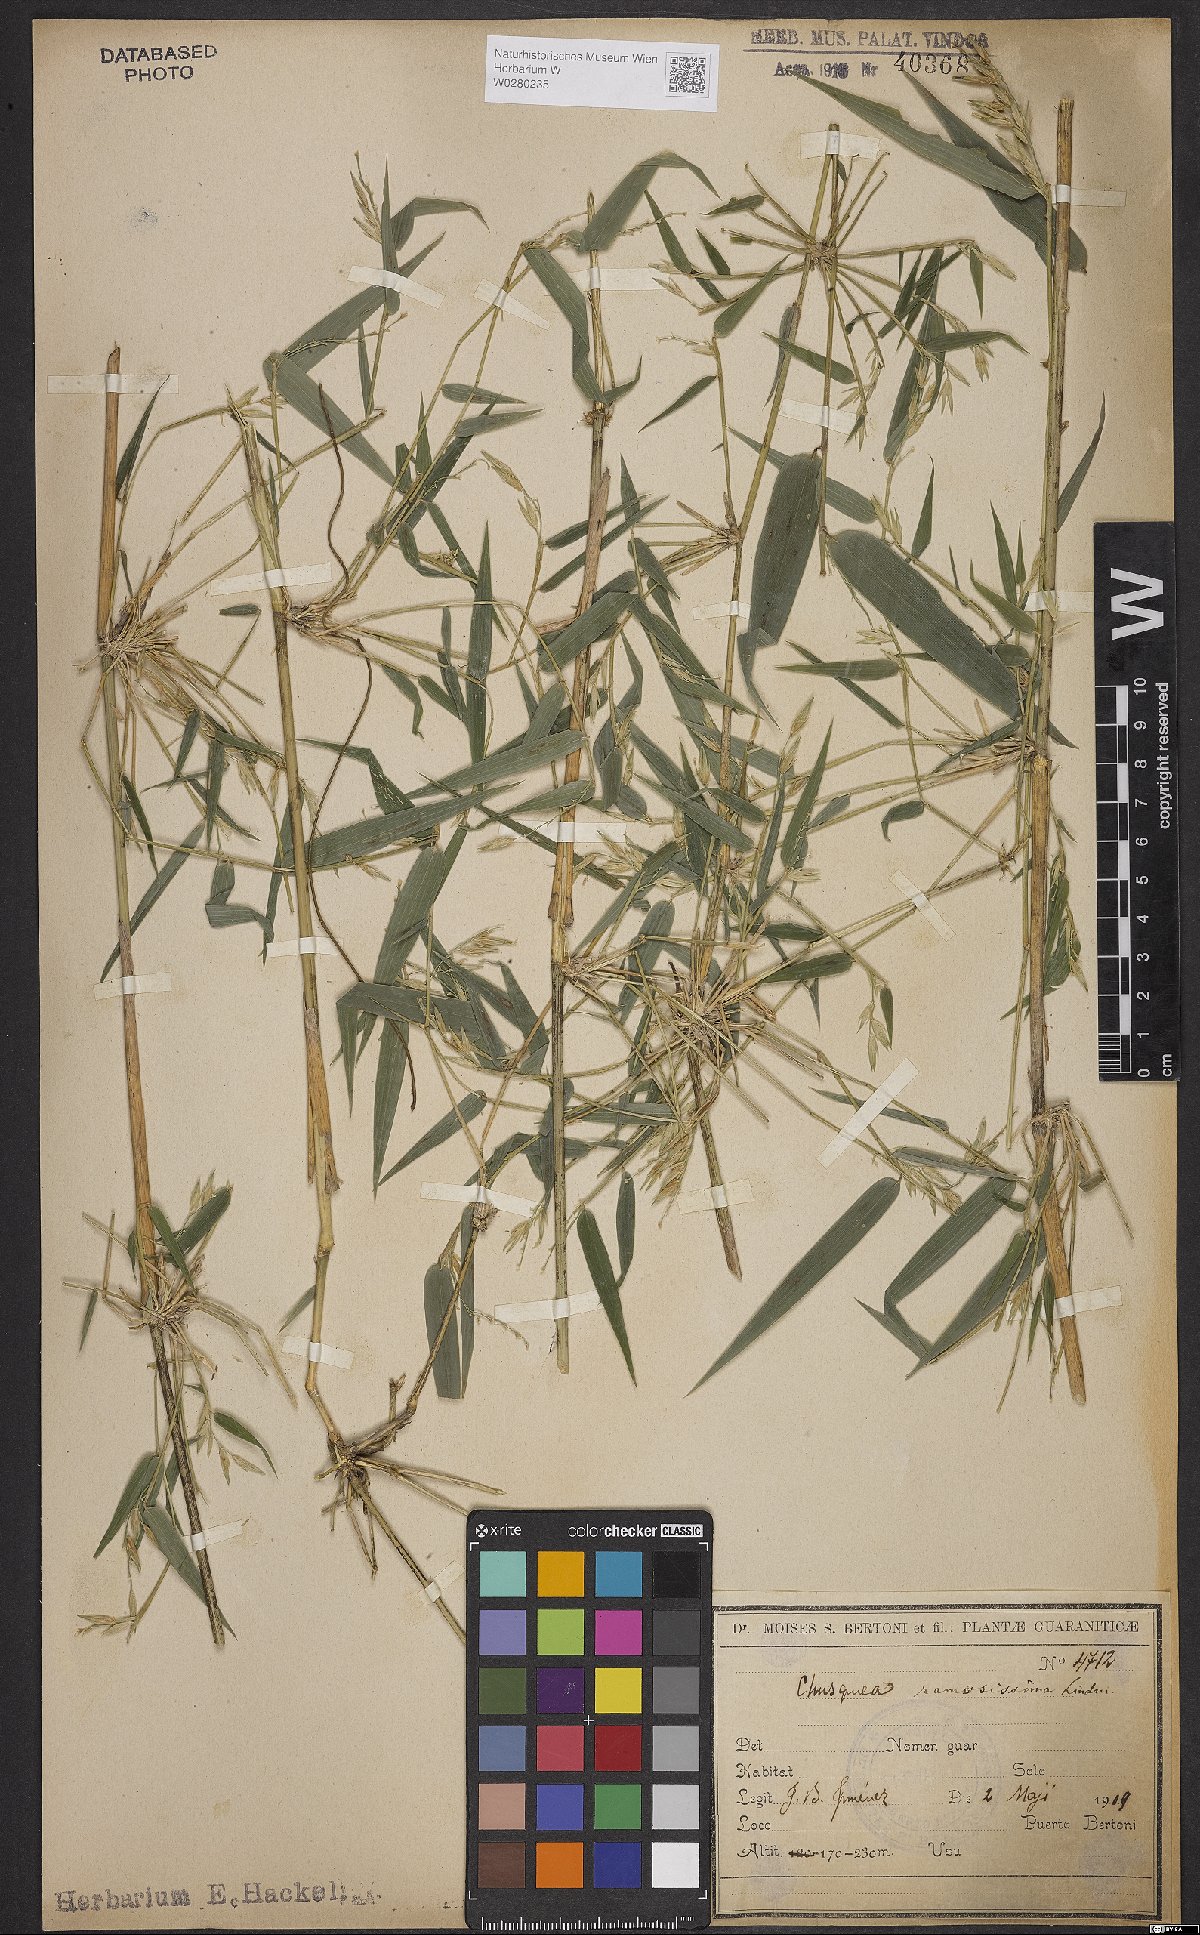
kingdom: Plantae
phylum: Tracheophyta
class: Liliopsida
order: Poales
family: Poaceae
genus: Chusquea
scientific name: Chusquea ramosissima
